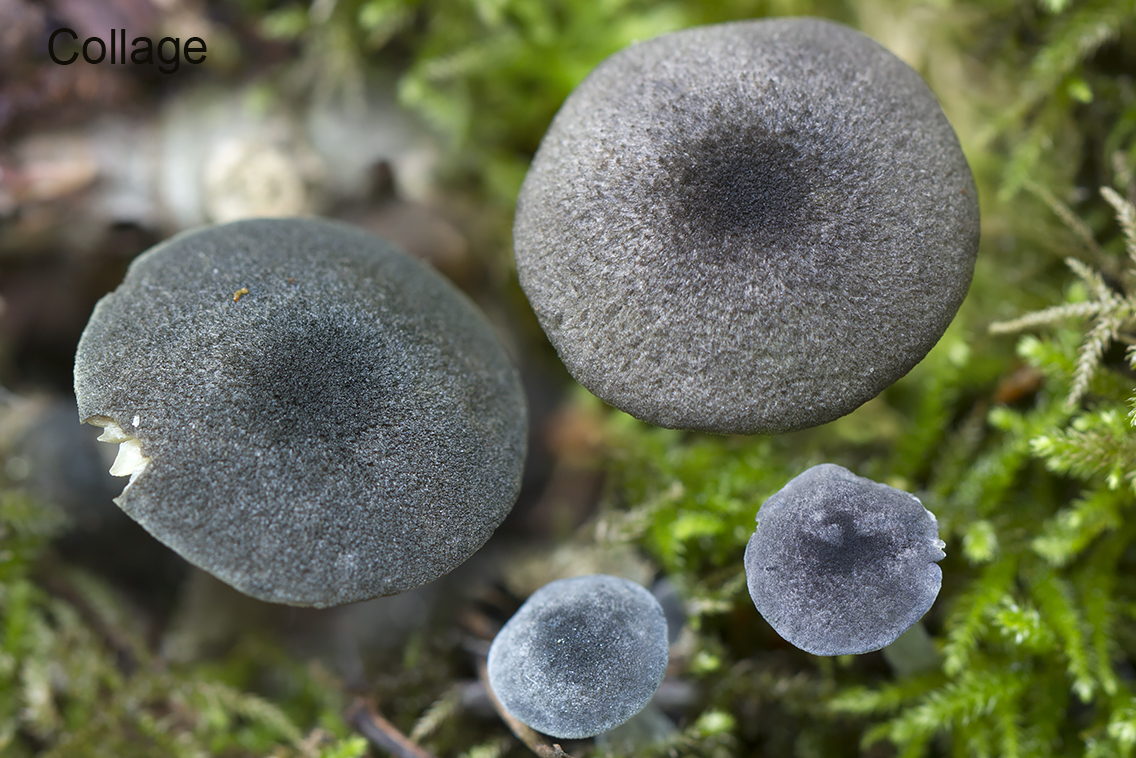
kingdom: Fungi
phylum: Basidiomycota
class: Agaricomycetes
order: Agaricales
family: Entolomataceae
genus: Entoloma
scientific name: Entoloma violaceoserrulatum
